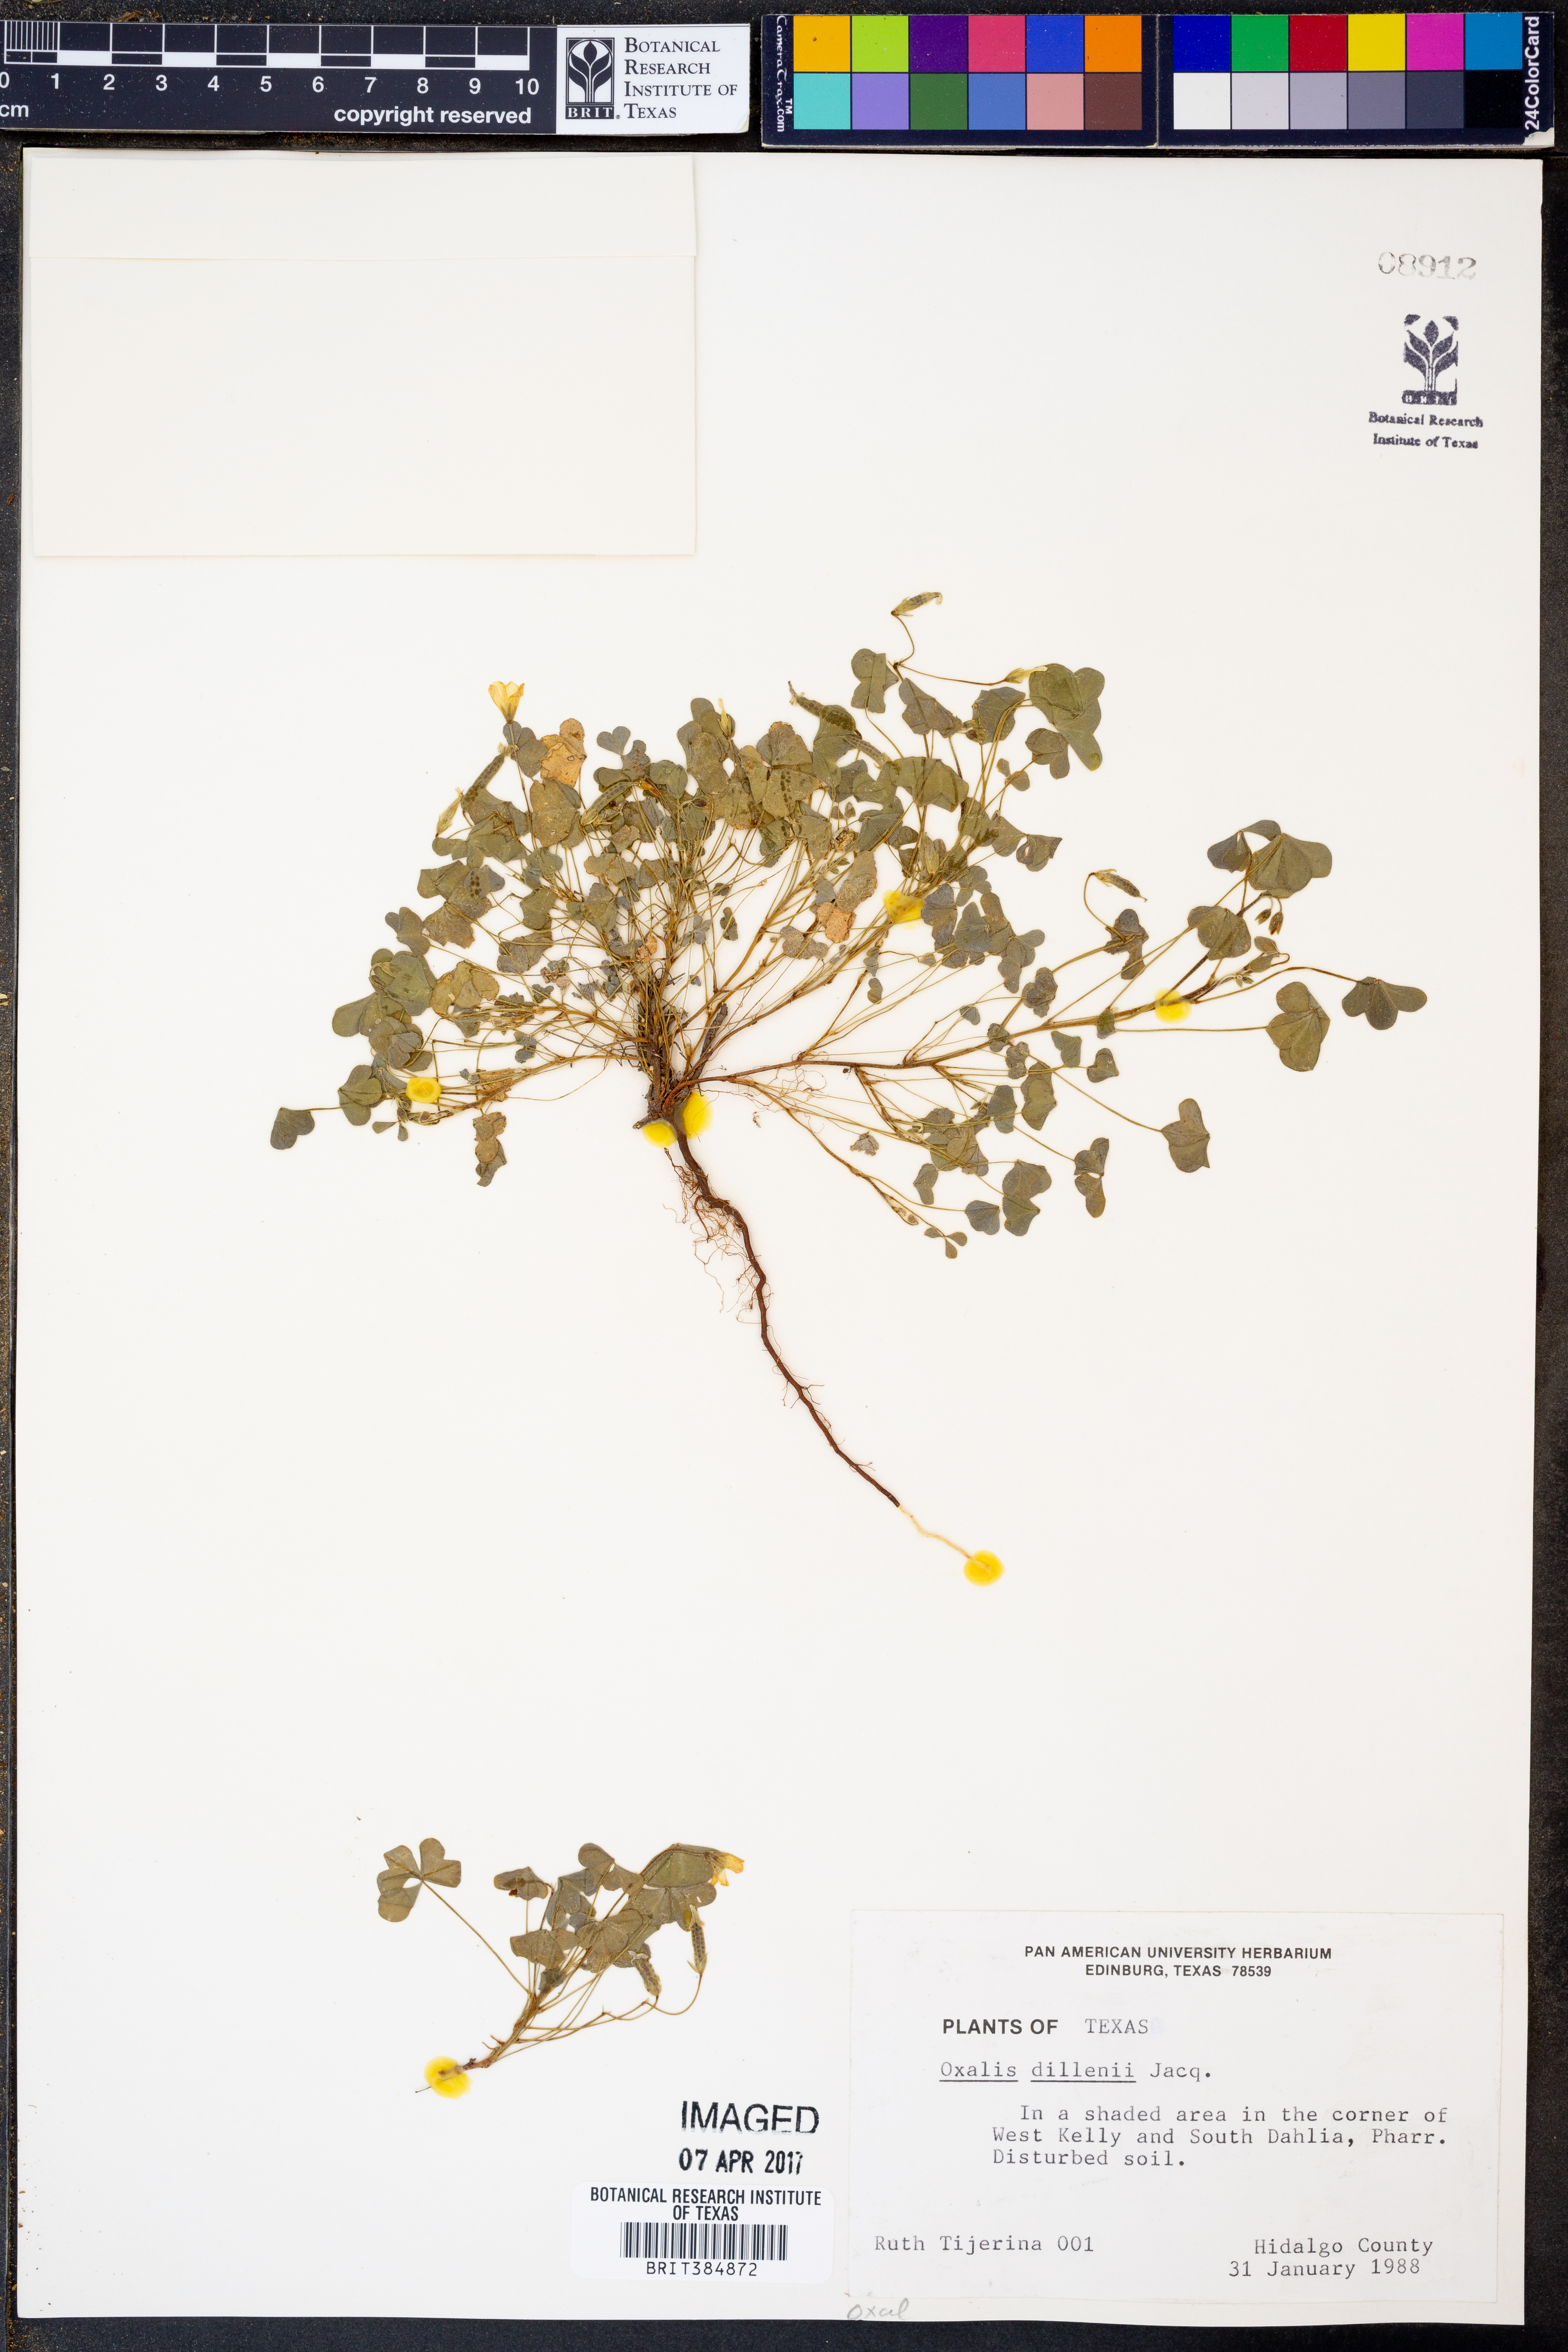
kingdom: Plantae
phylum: Tracheophyta
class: Magnoliopsida
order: Oxalidales
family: Oxalidaceae
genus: Oxalis
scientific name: Oxalis dillenii
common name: Sussex yellow-sorrel
